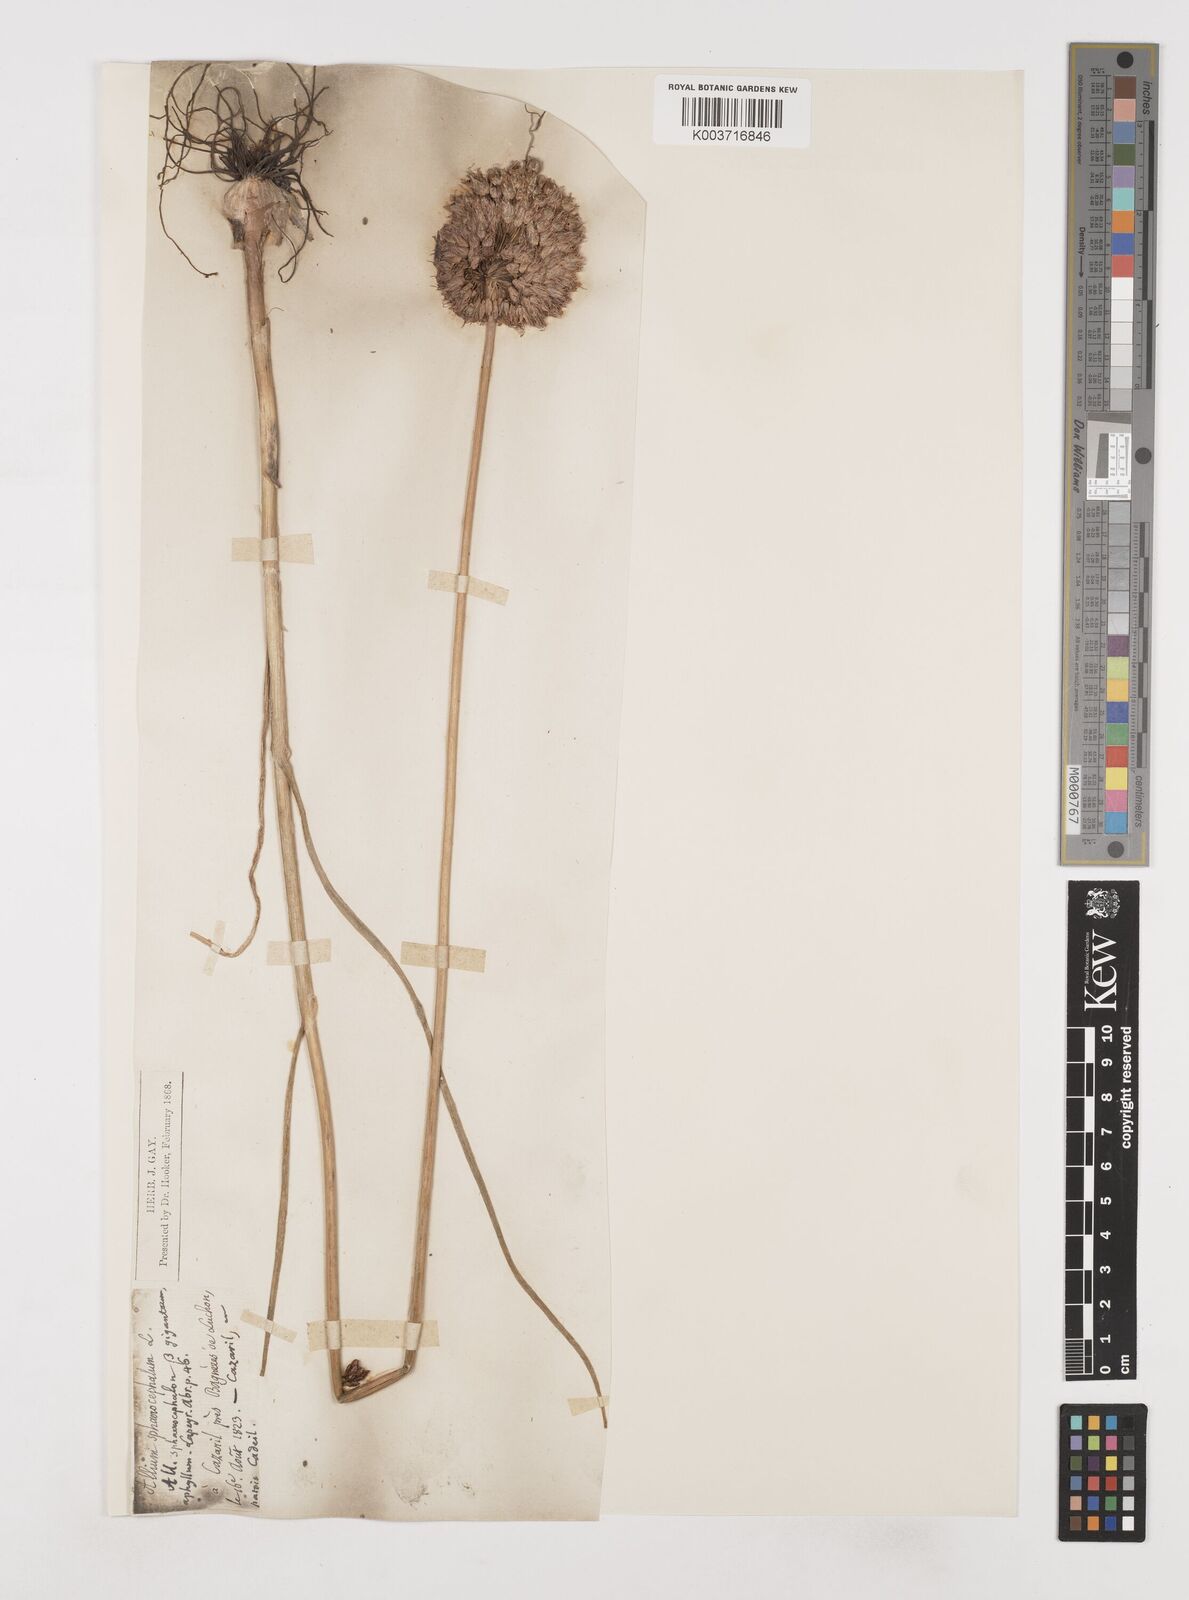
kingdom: Plantae
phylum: Tracheophyta
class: Liliopsida
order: Asparagales
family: Amaryllidaceae
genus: Allium
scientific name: Allium sphaerocephalon
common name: Round-headed leek
